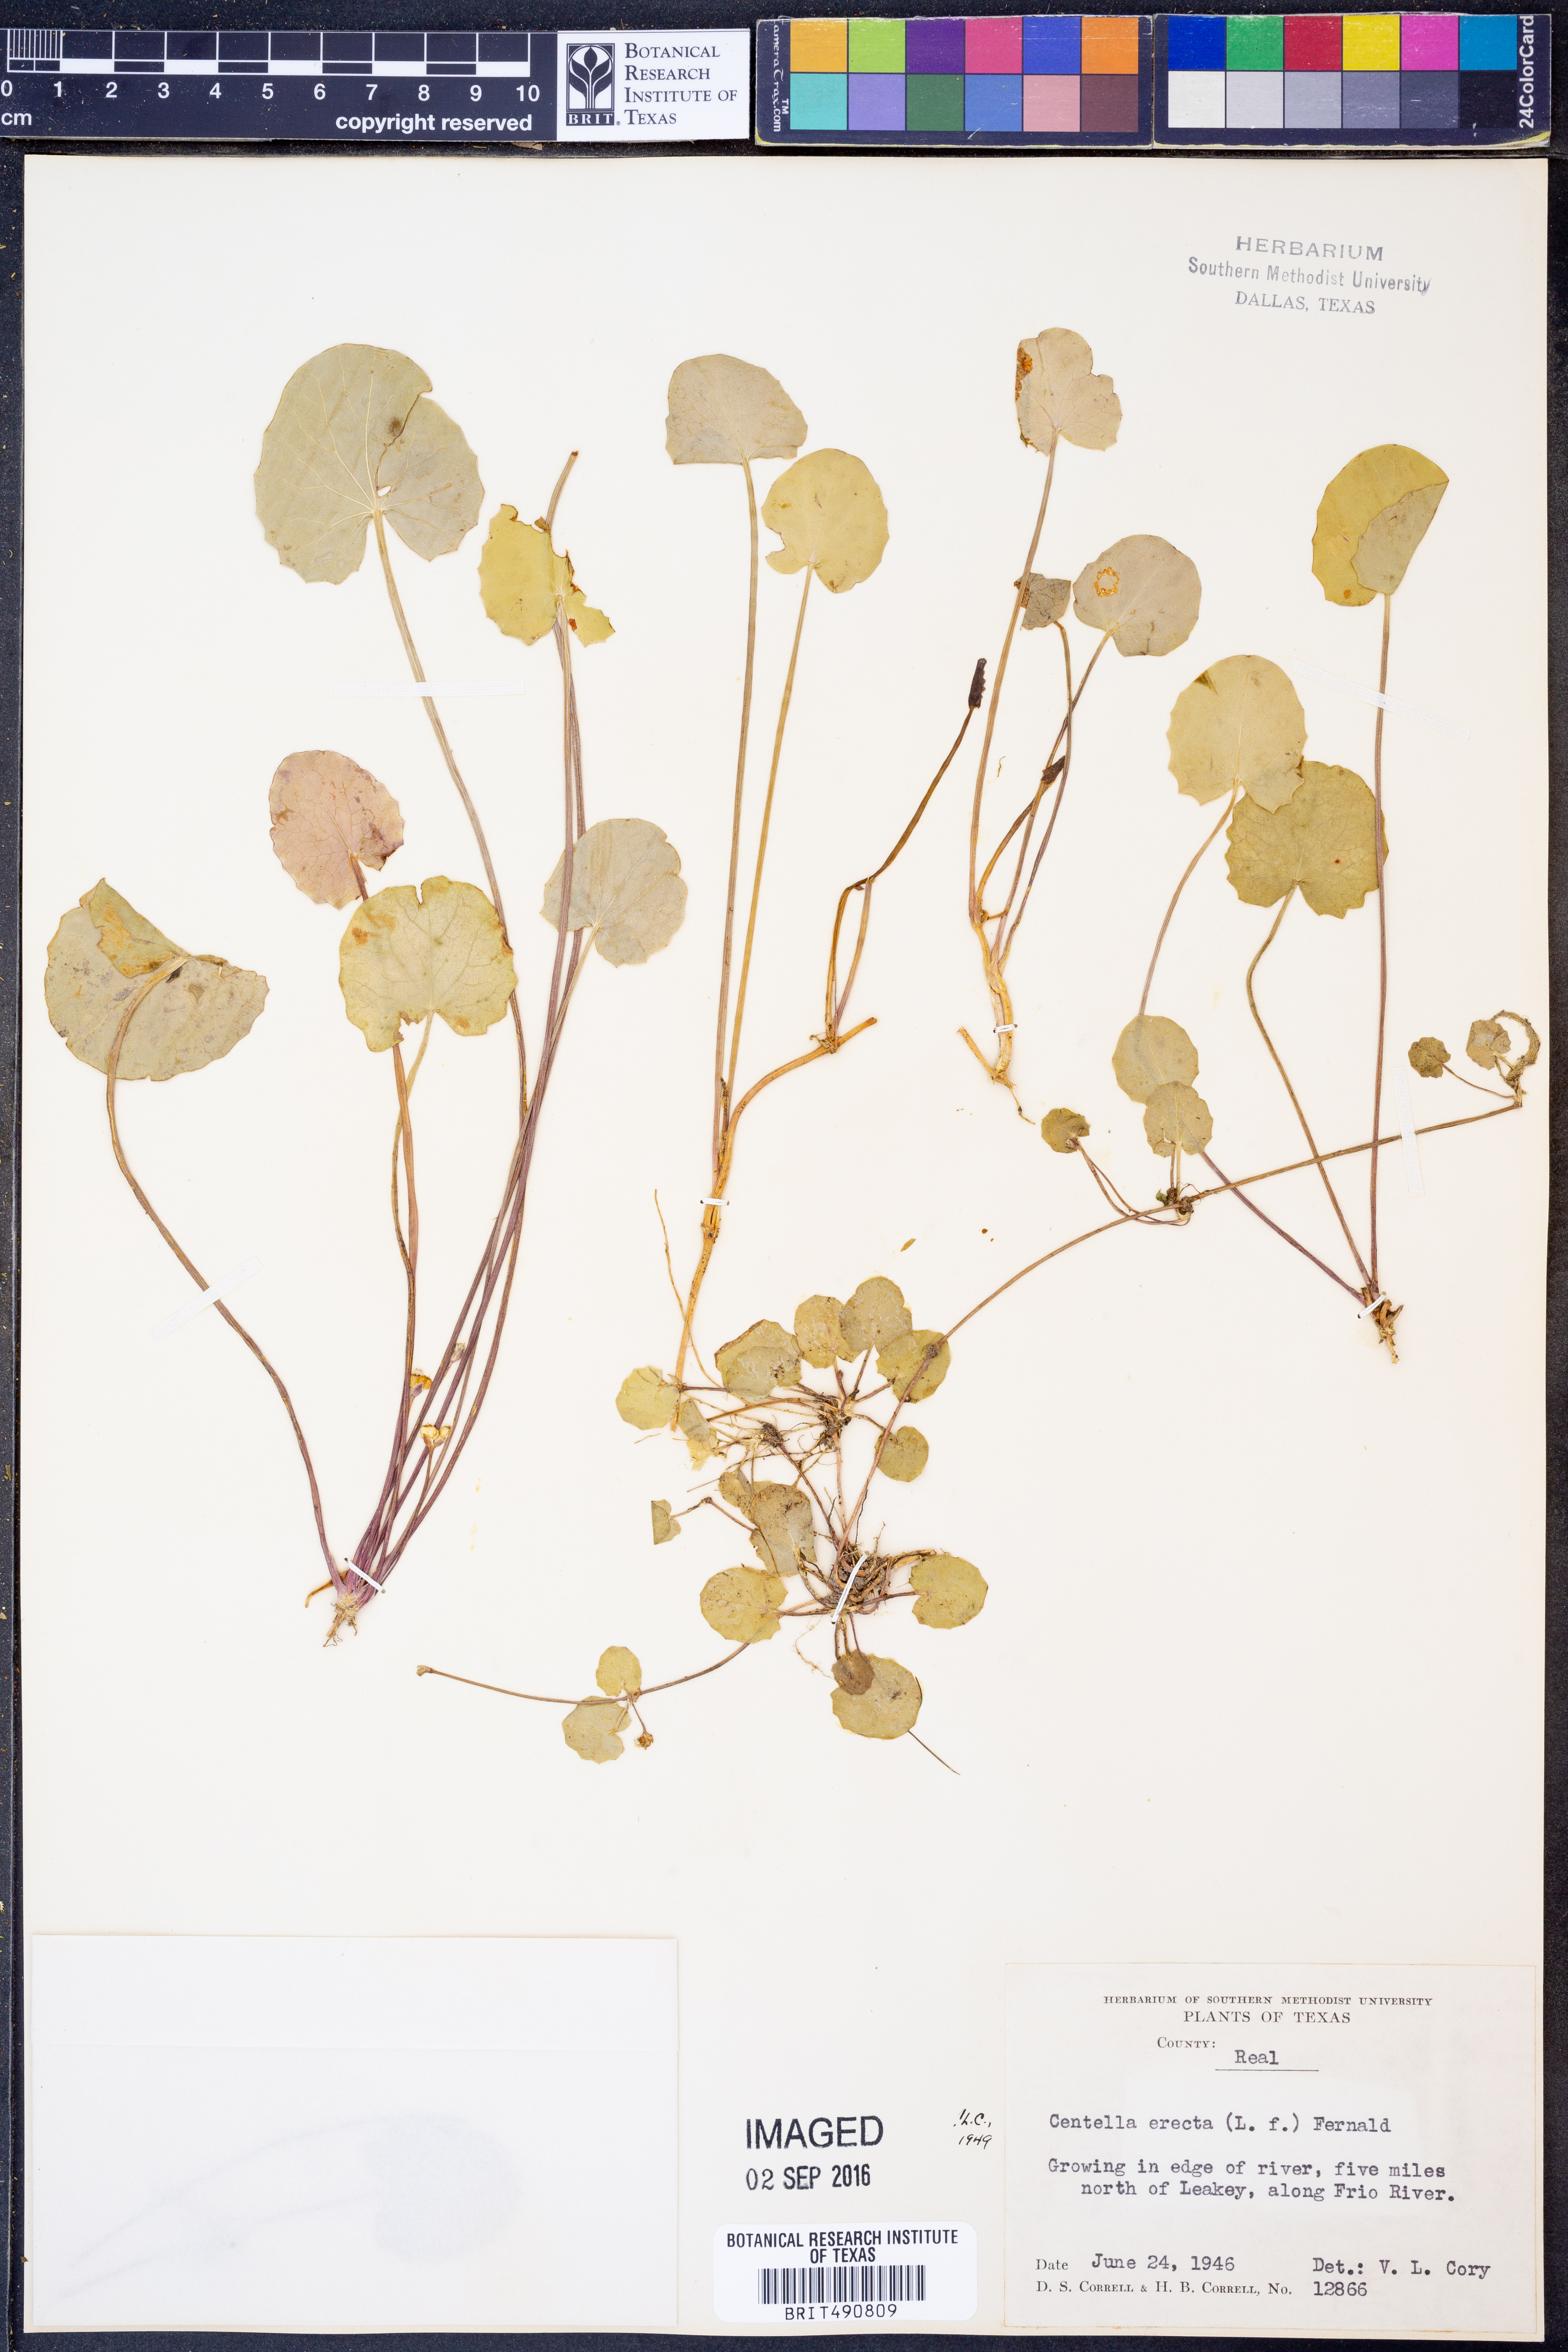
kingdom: Plantae
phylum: Tracheophyta
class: Magnoliopsida
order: Apiales
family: Apiaceae
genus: Centella
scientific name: Centella erecta
